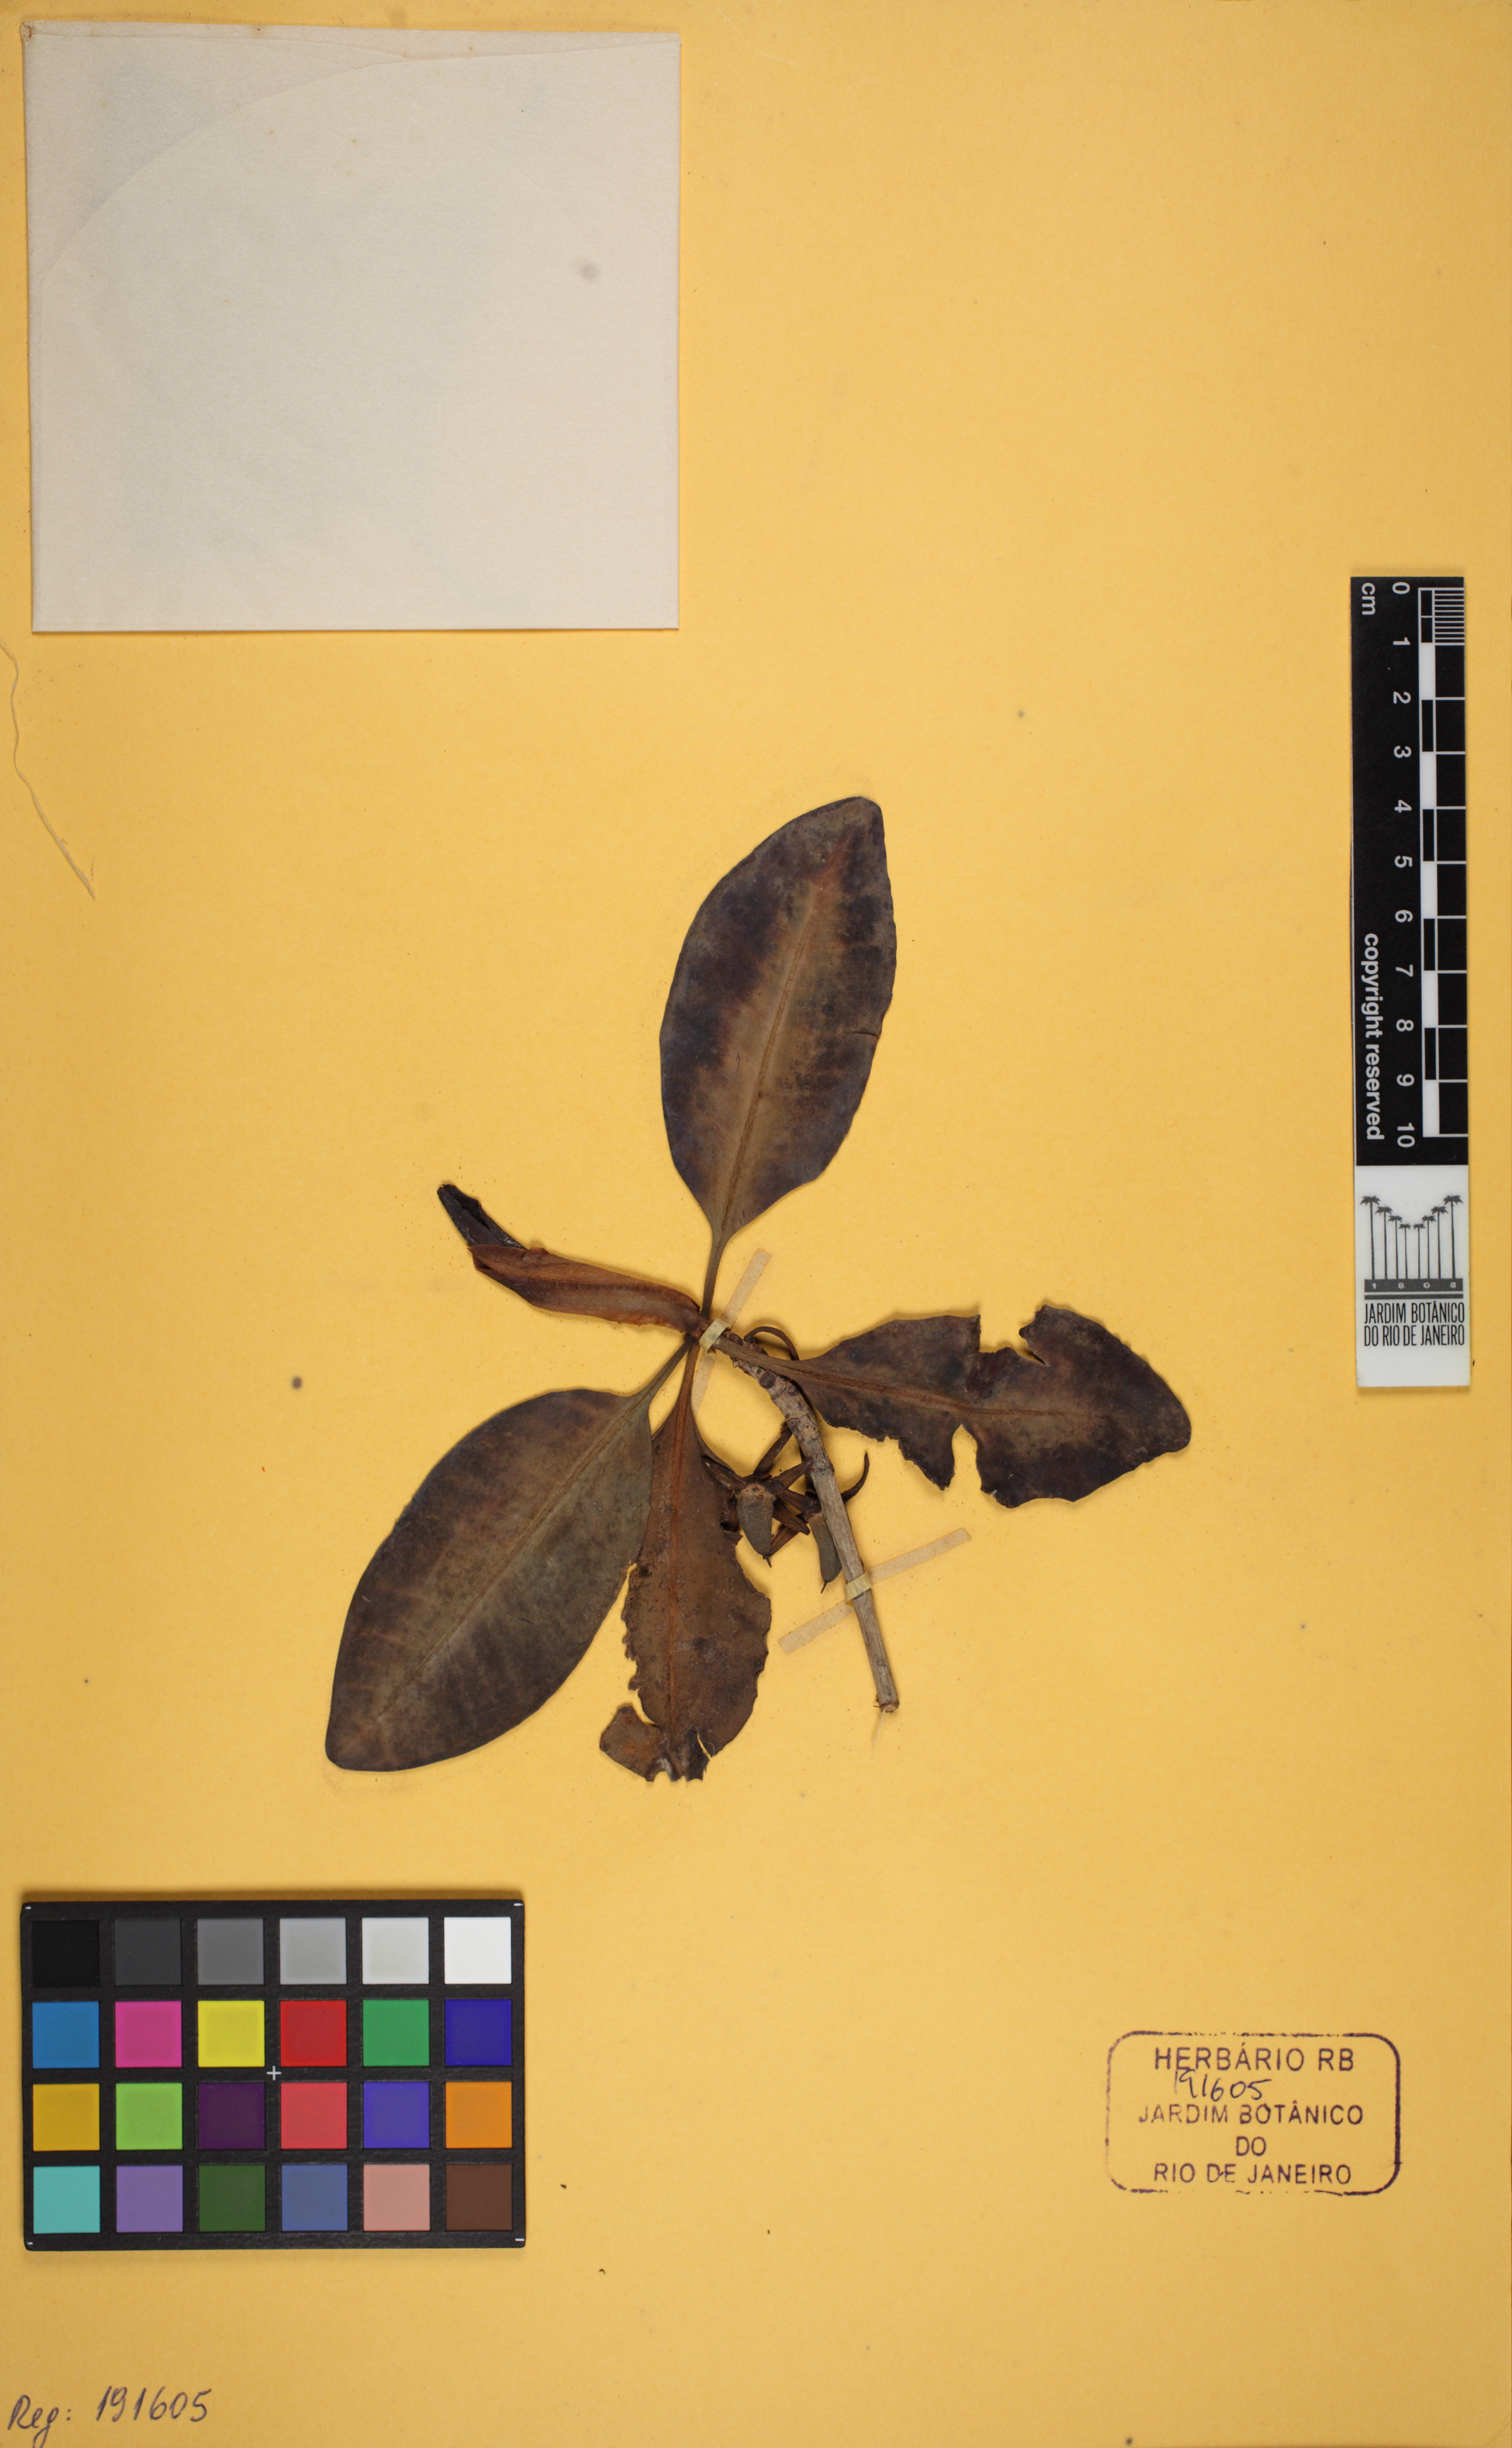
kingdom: Plantae
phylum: Tracheophyta
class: Magnoliopsida
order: Malpighiales
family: Rhizophoraceae
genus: Rhizophora
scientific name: Rhizophora mangle
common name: Red mangrove
